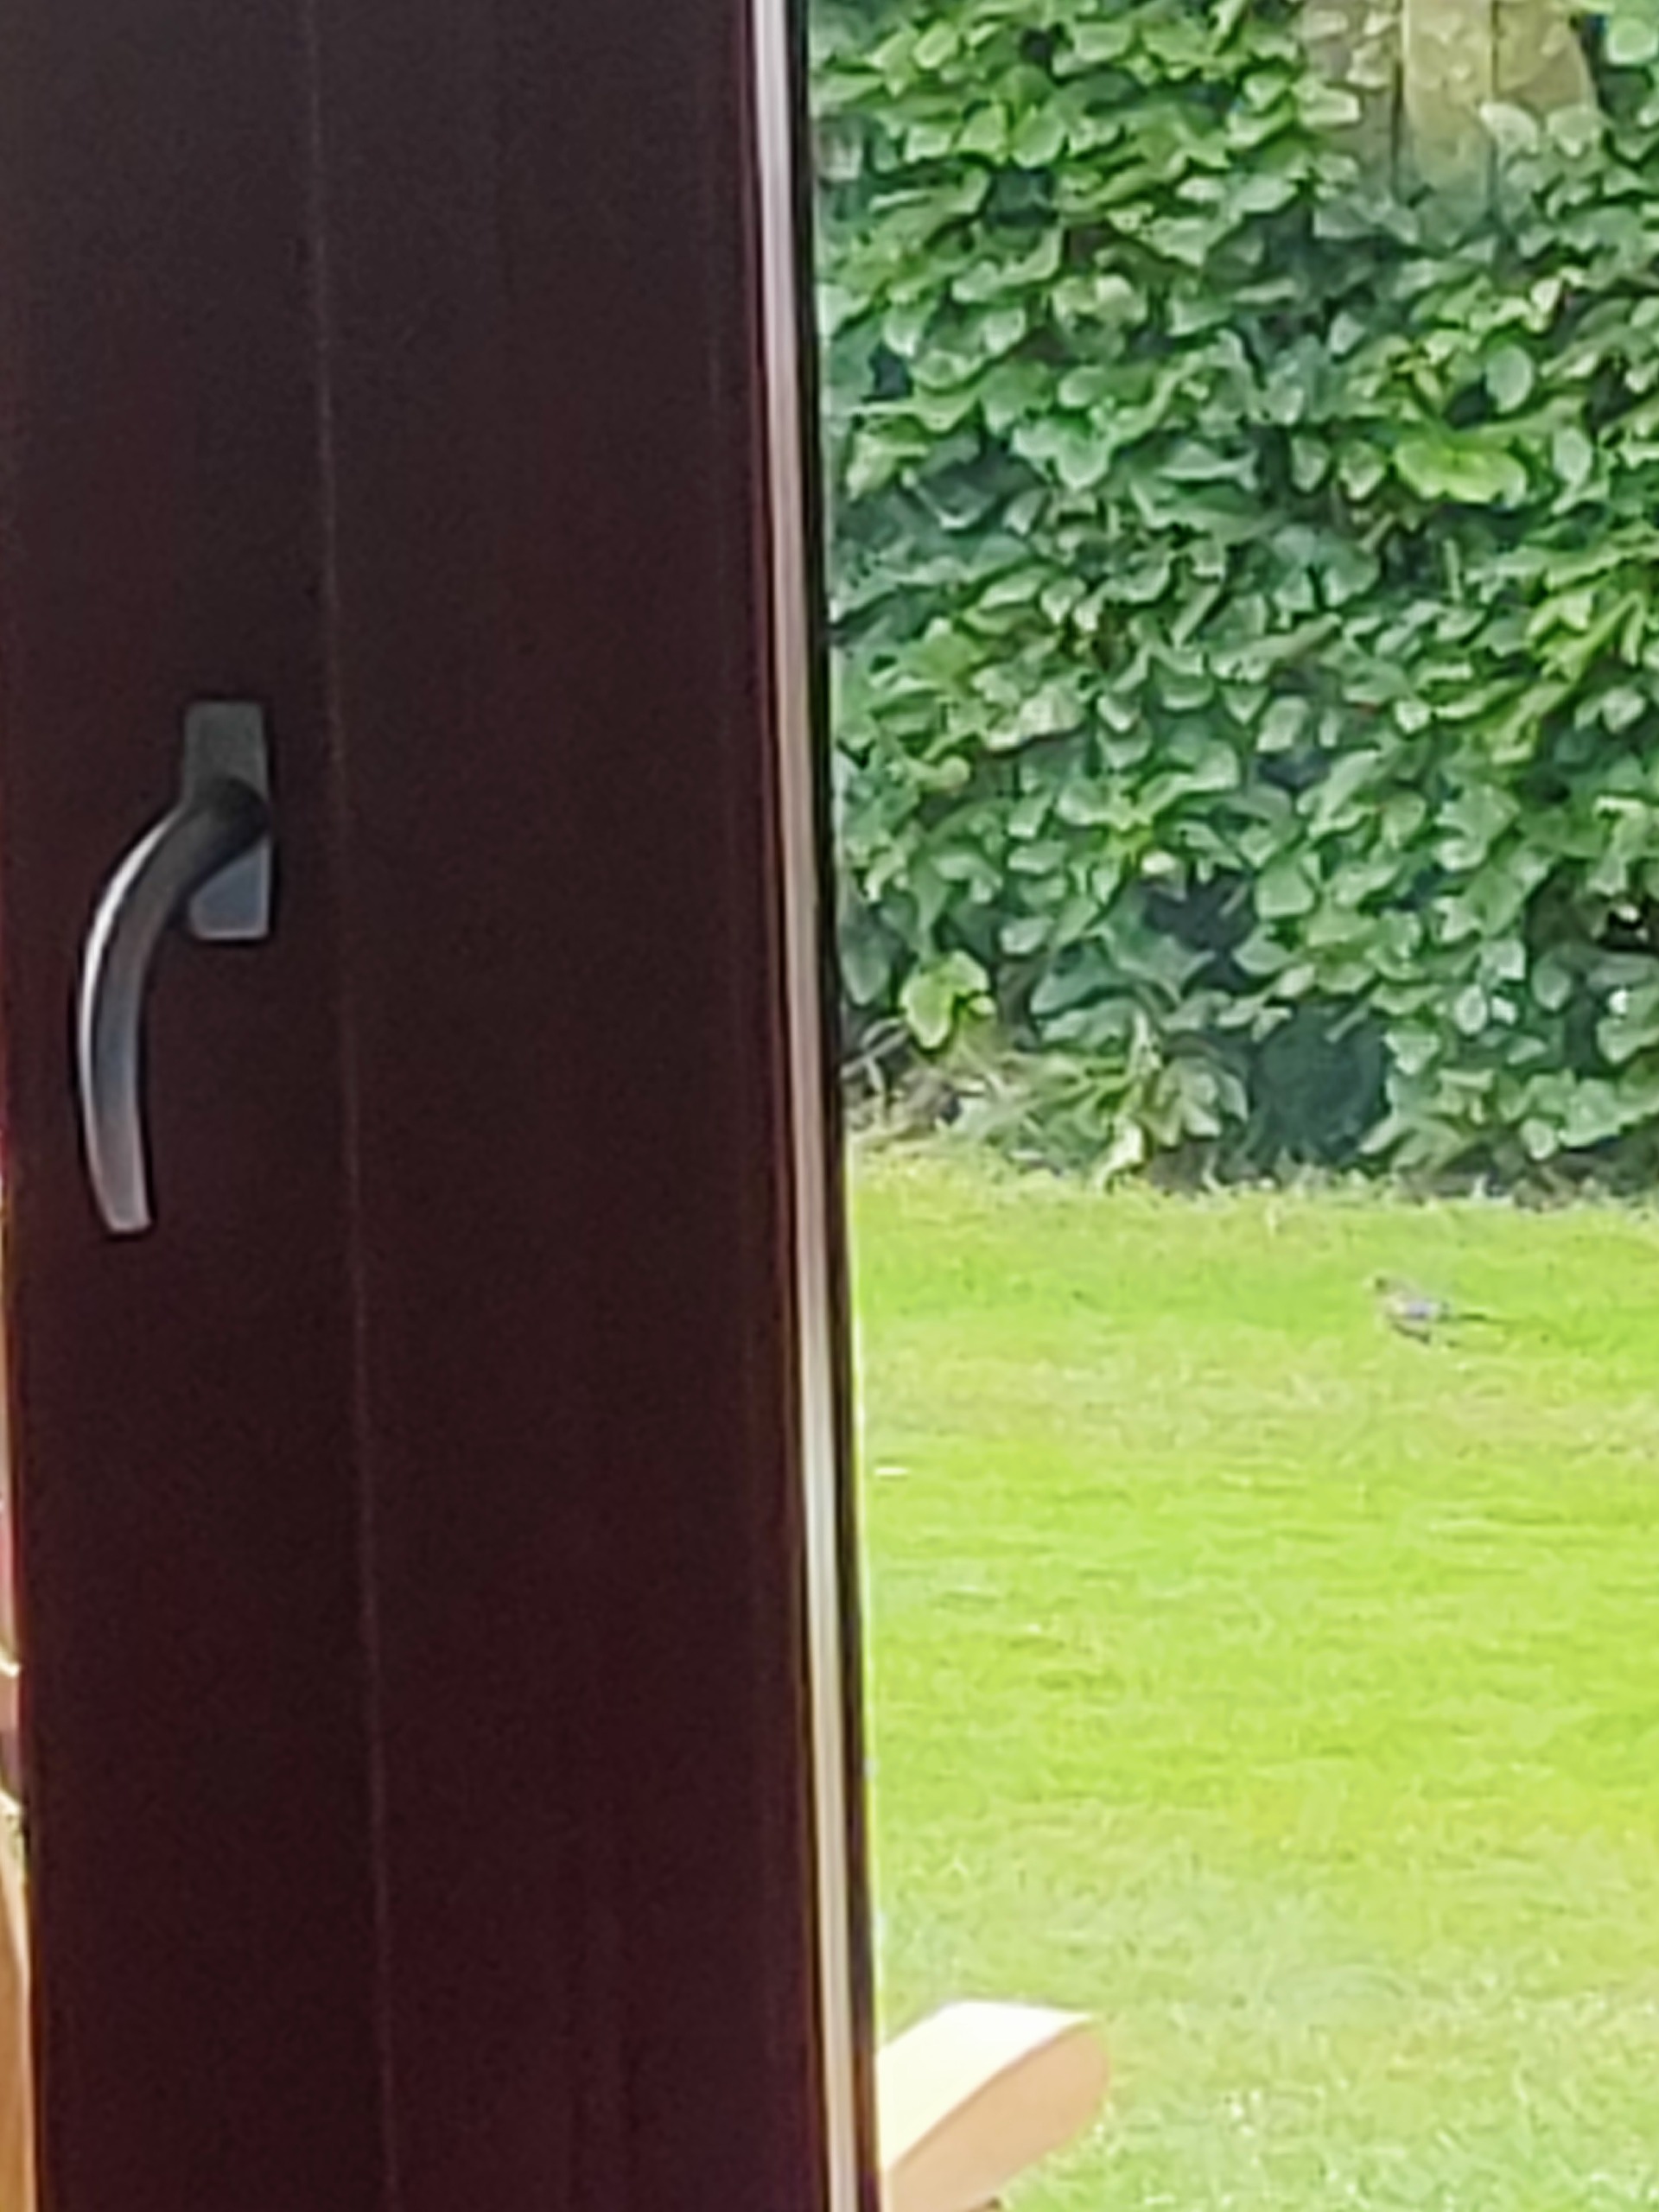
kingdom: Animalia
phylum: Chordata
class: Aves
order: Passeriformes
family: Fringillidae
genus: Fringilla
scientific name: Fringilla coelebs
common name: Bogfinke
